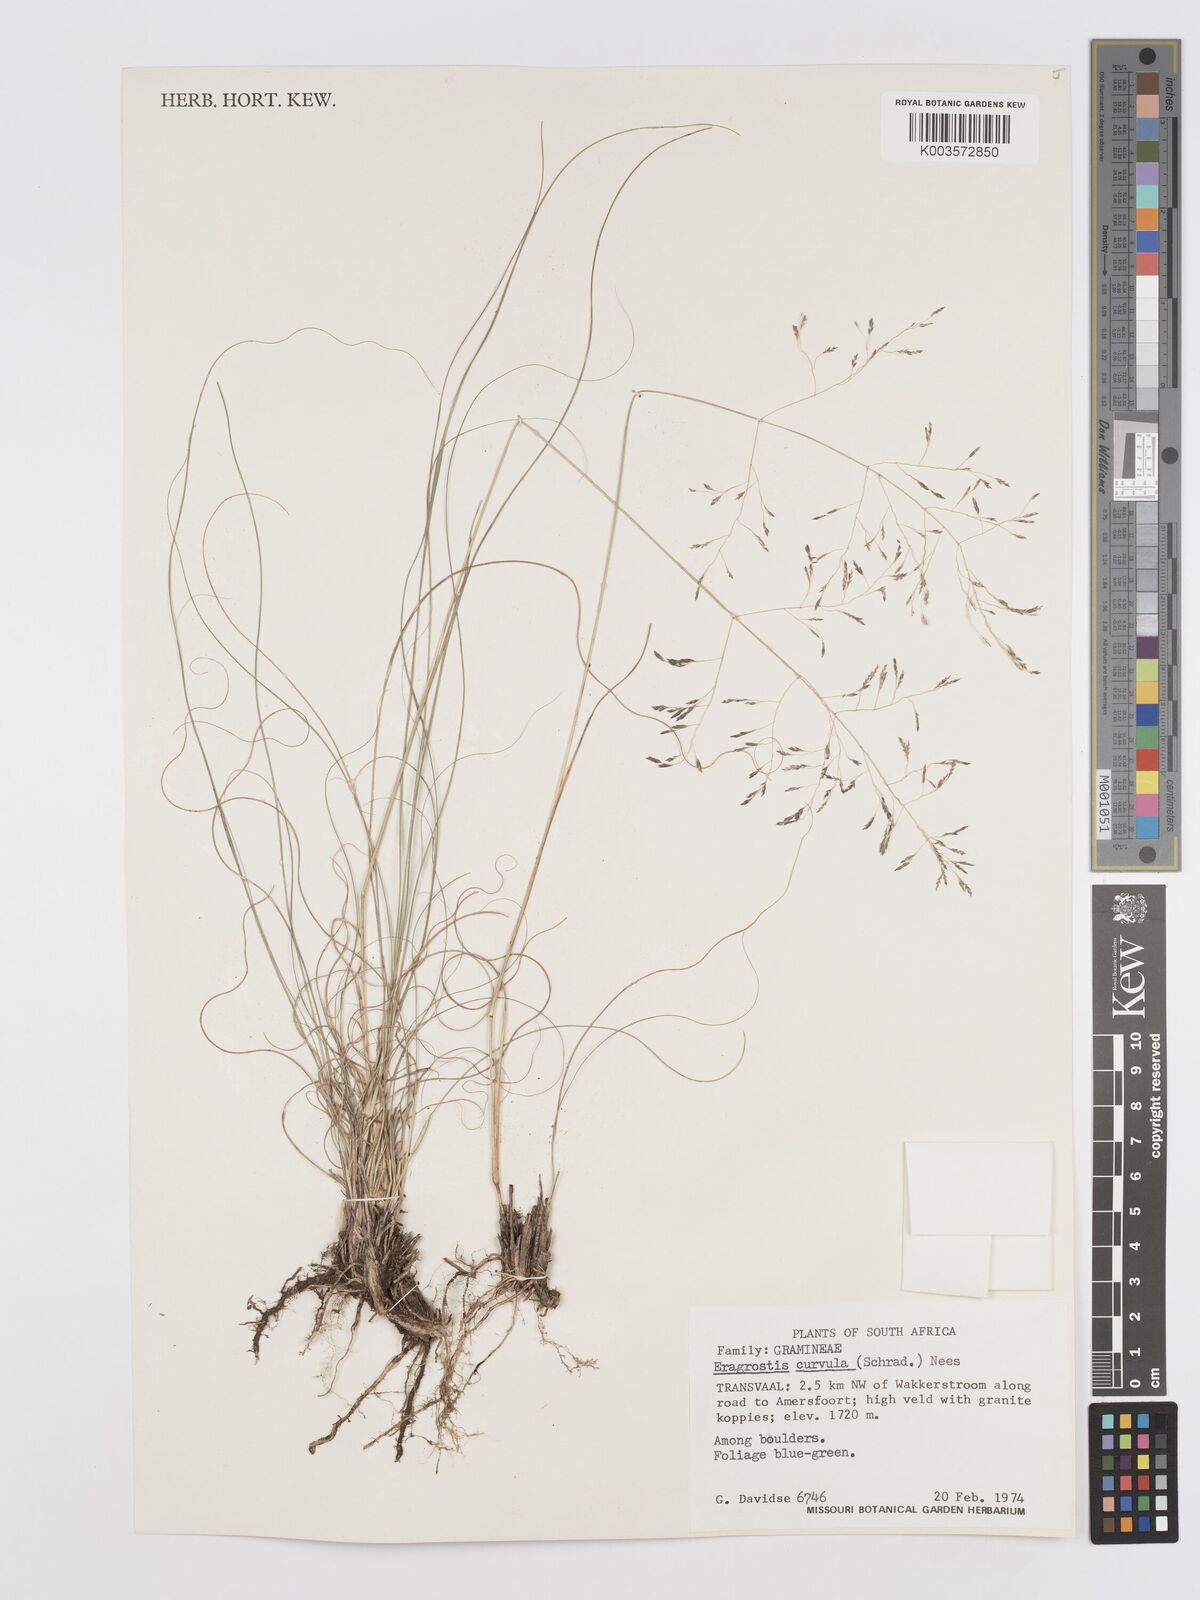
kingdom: Plantae
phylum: Tracheophyta
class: Liliopsida
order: Poales
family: Poaceae
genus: Eragrostis
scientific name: Eragrostis curvula
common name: African love-grass
